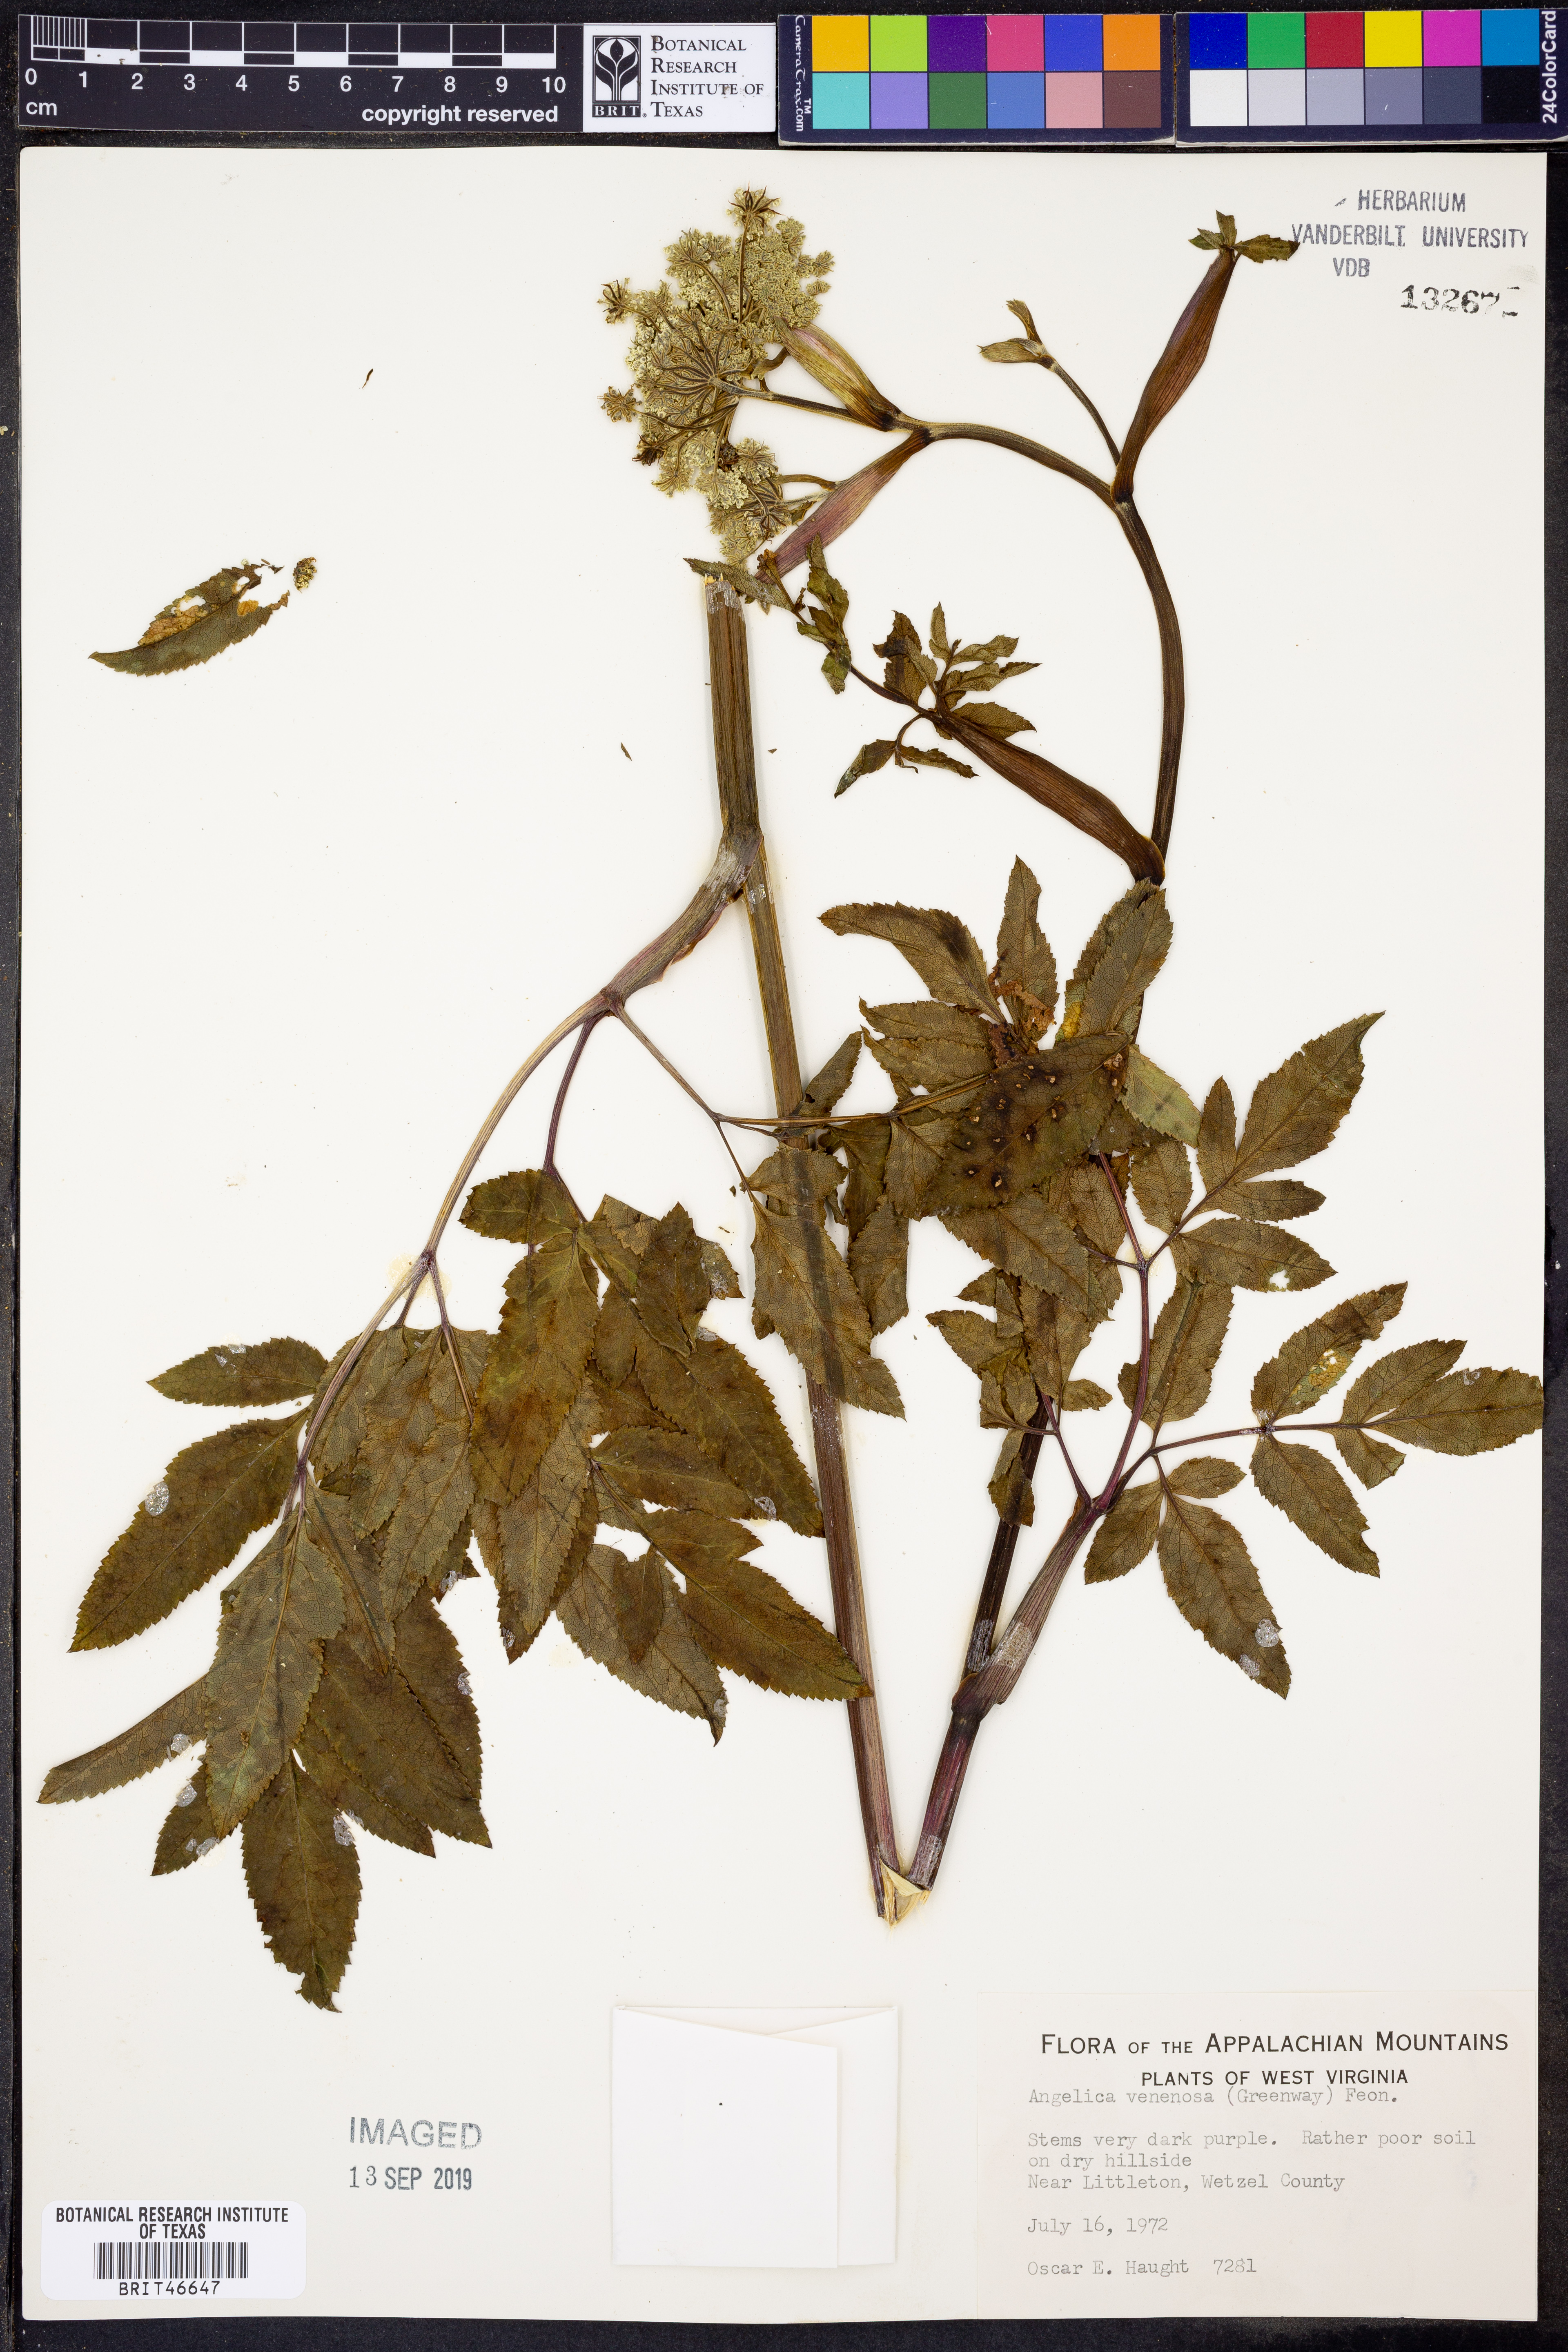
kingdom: Plantae
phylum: Tracheophyta
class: Magnoliopsida
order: Apiales
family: Apiaceae
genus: Angelica
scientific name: Angelica venenosa
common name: Hairy angelica
